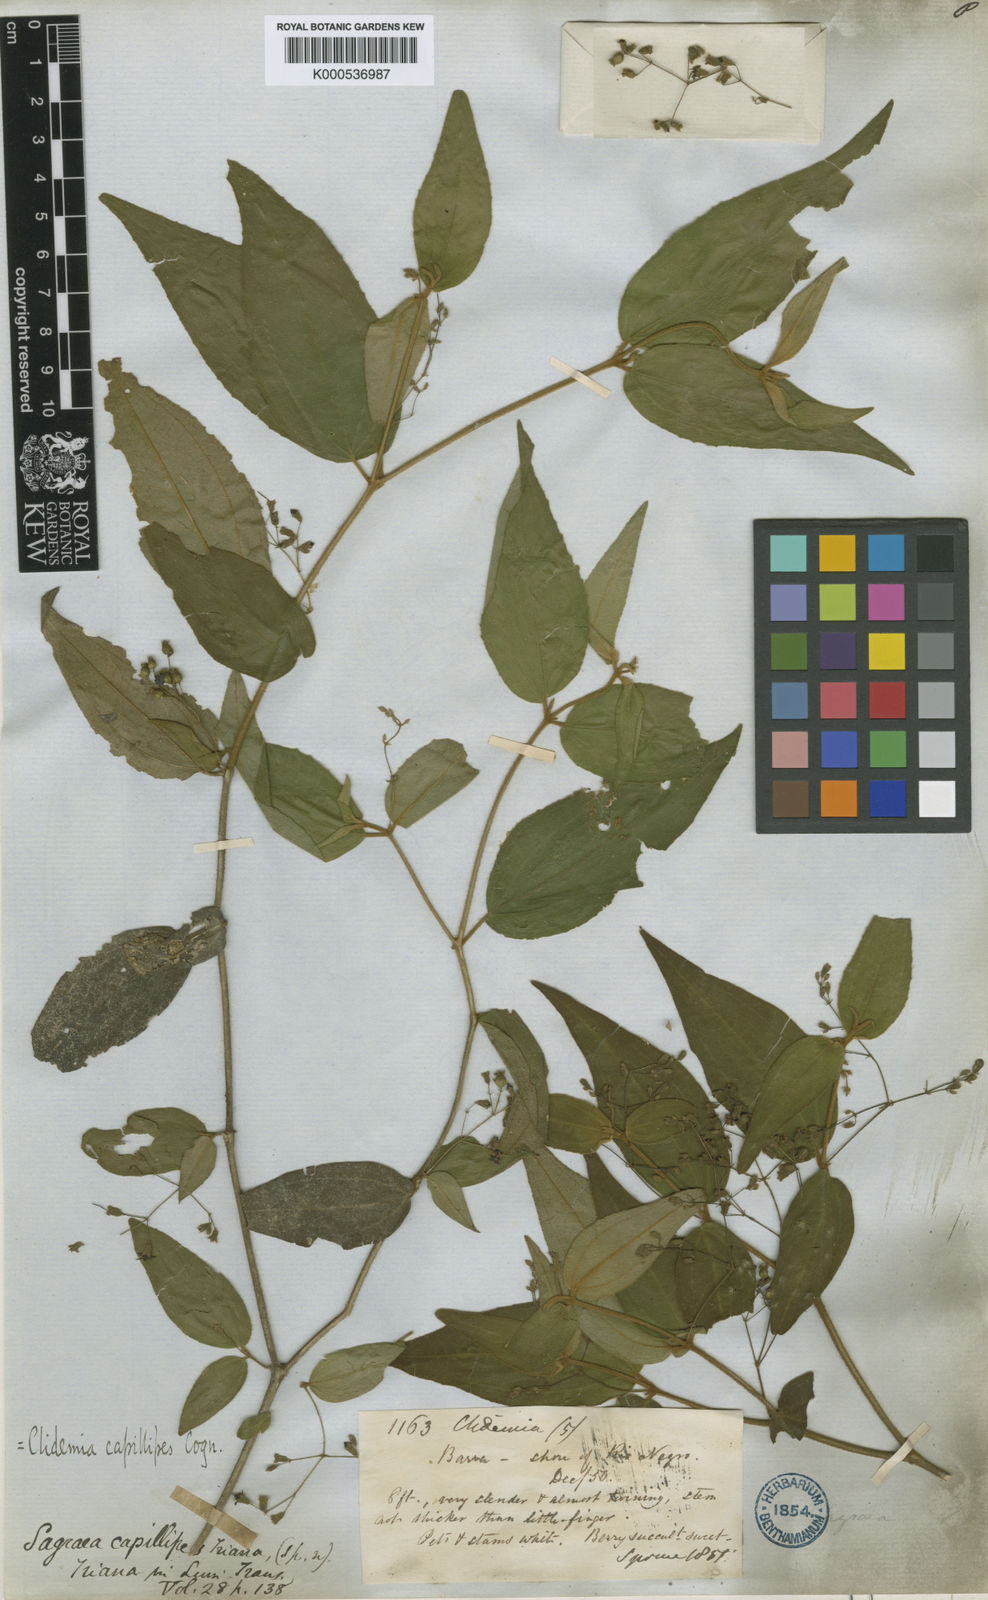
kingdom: Plantae
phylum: Tracheophyta
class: Magnoliopsida
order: Myrtales
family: Melastomataceae
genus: Miconia
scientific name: Miconia capillipes
